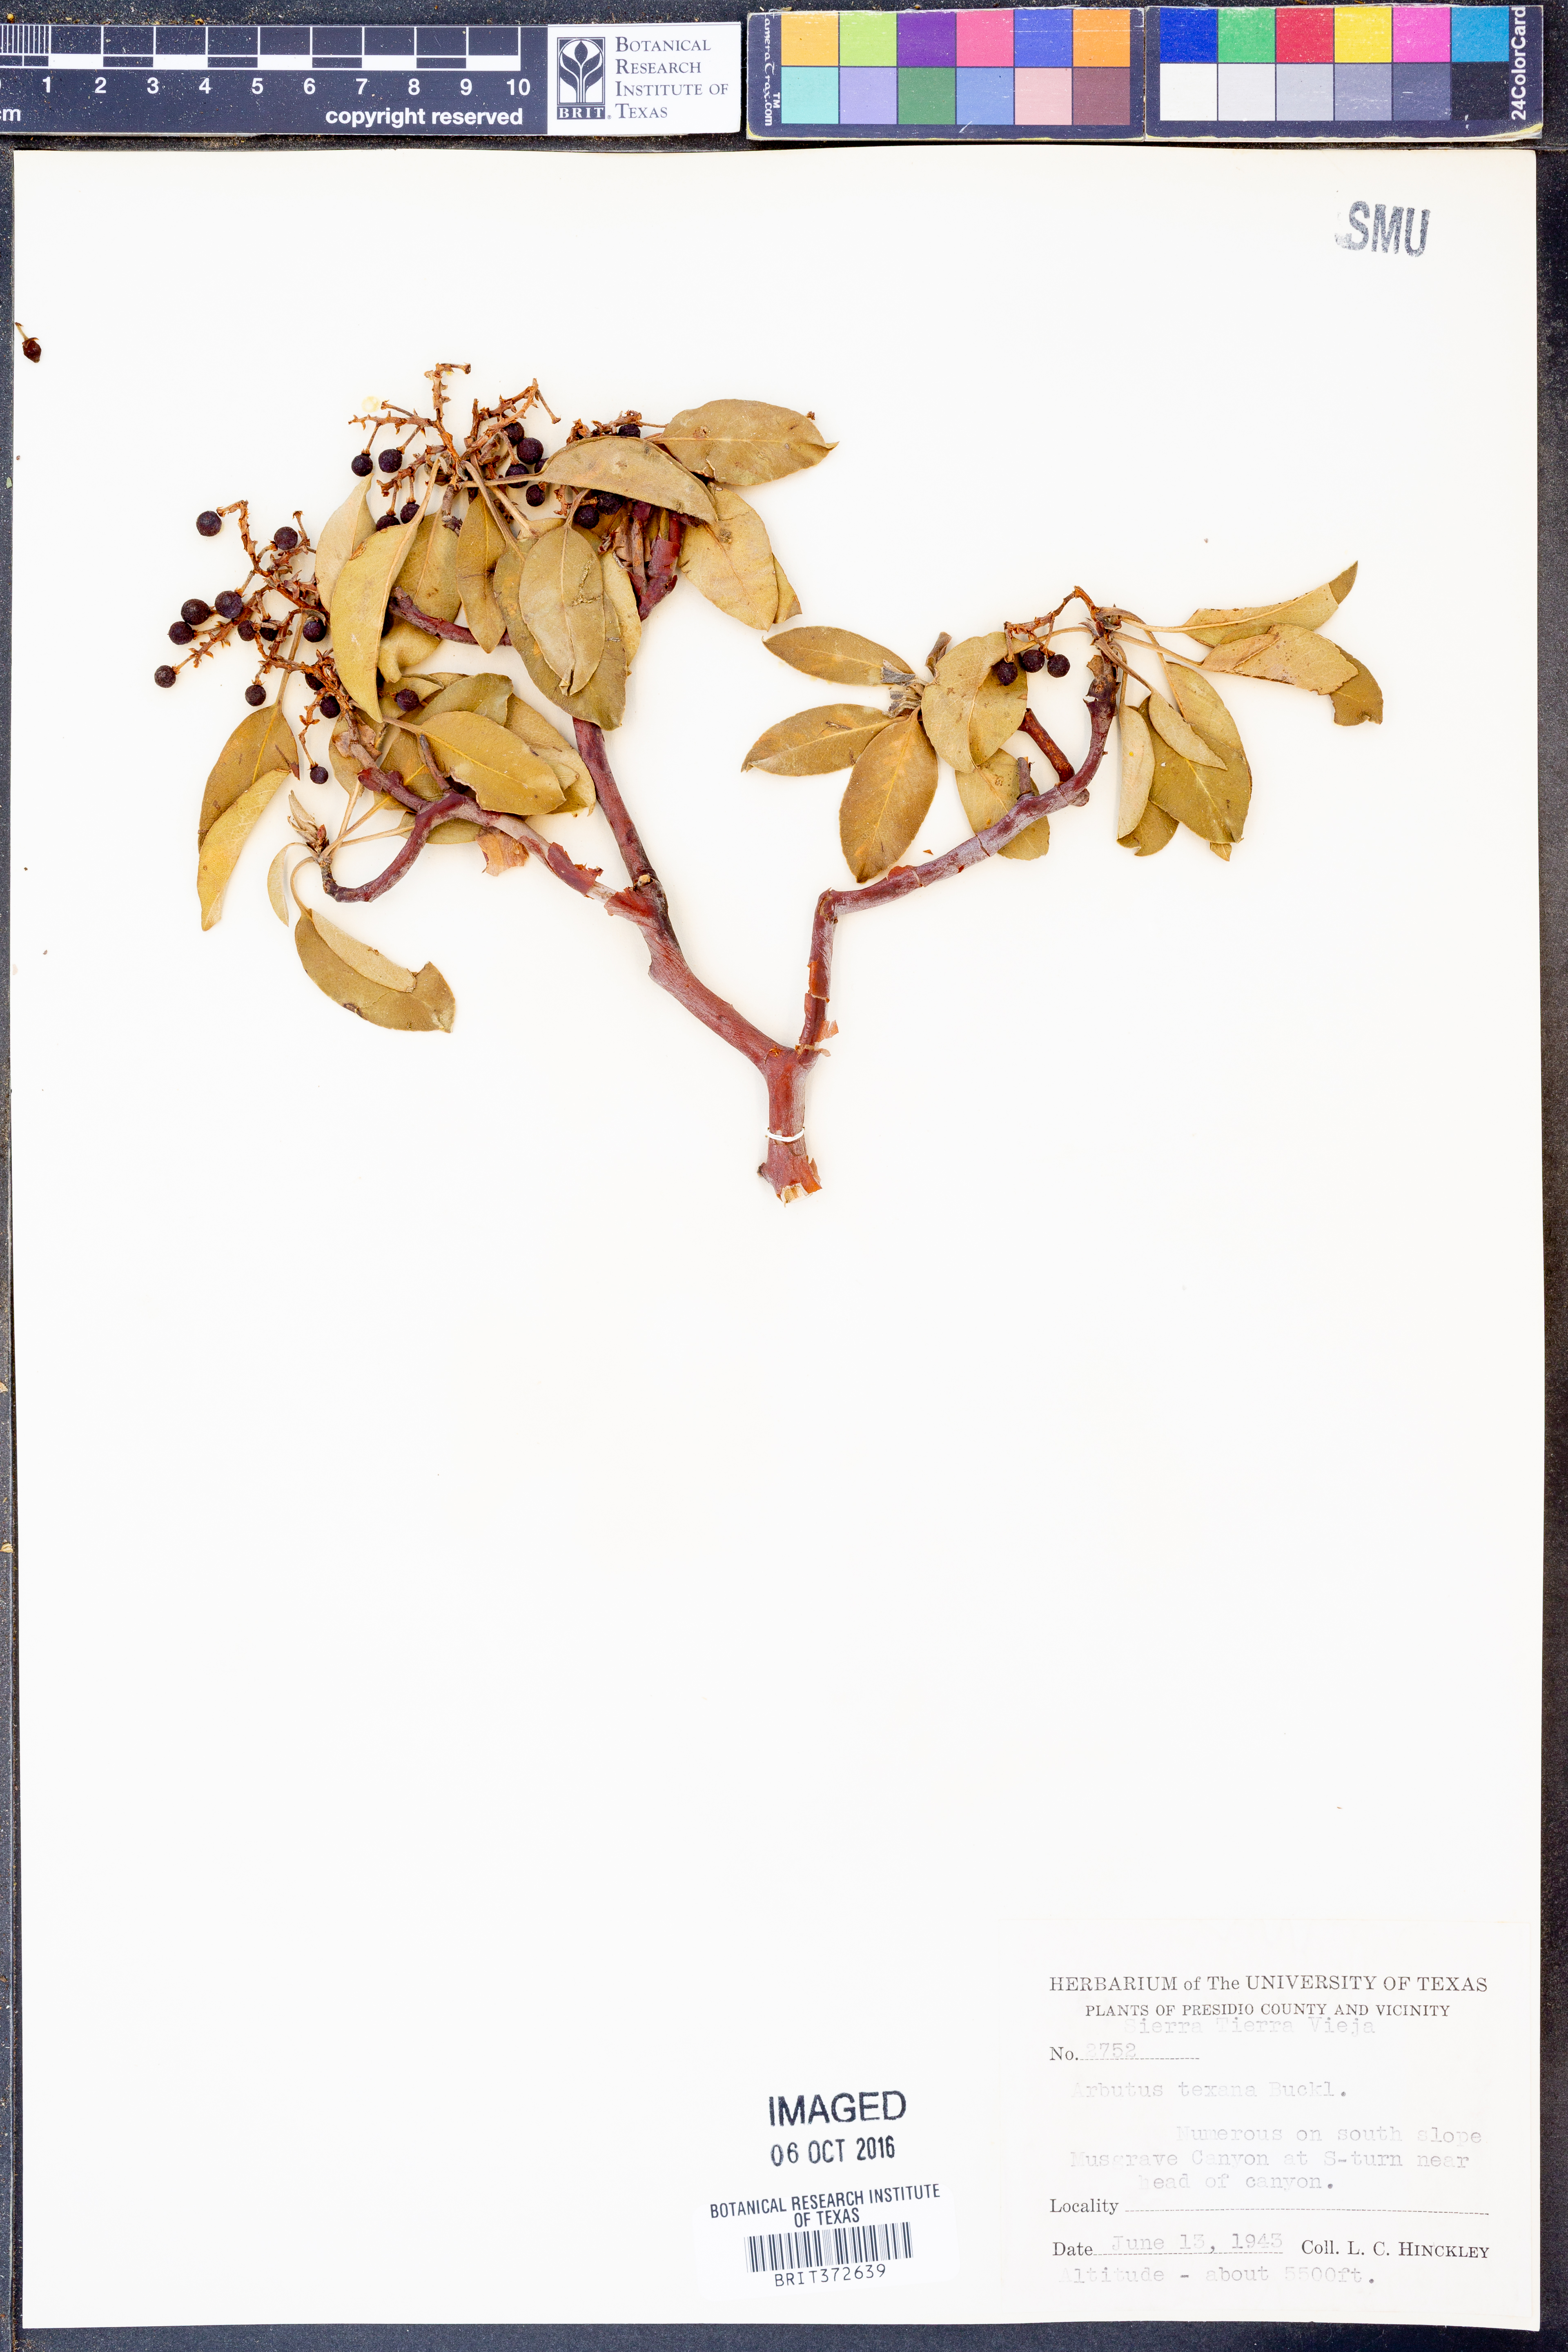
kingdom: Plantae
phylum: Tracheophyta
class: Magnoliopsida
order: Ericales
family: Ericaceae
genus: Arbutus
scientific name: Arbutus xalapensis
